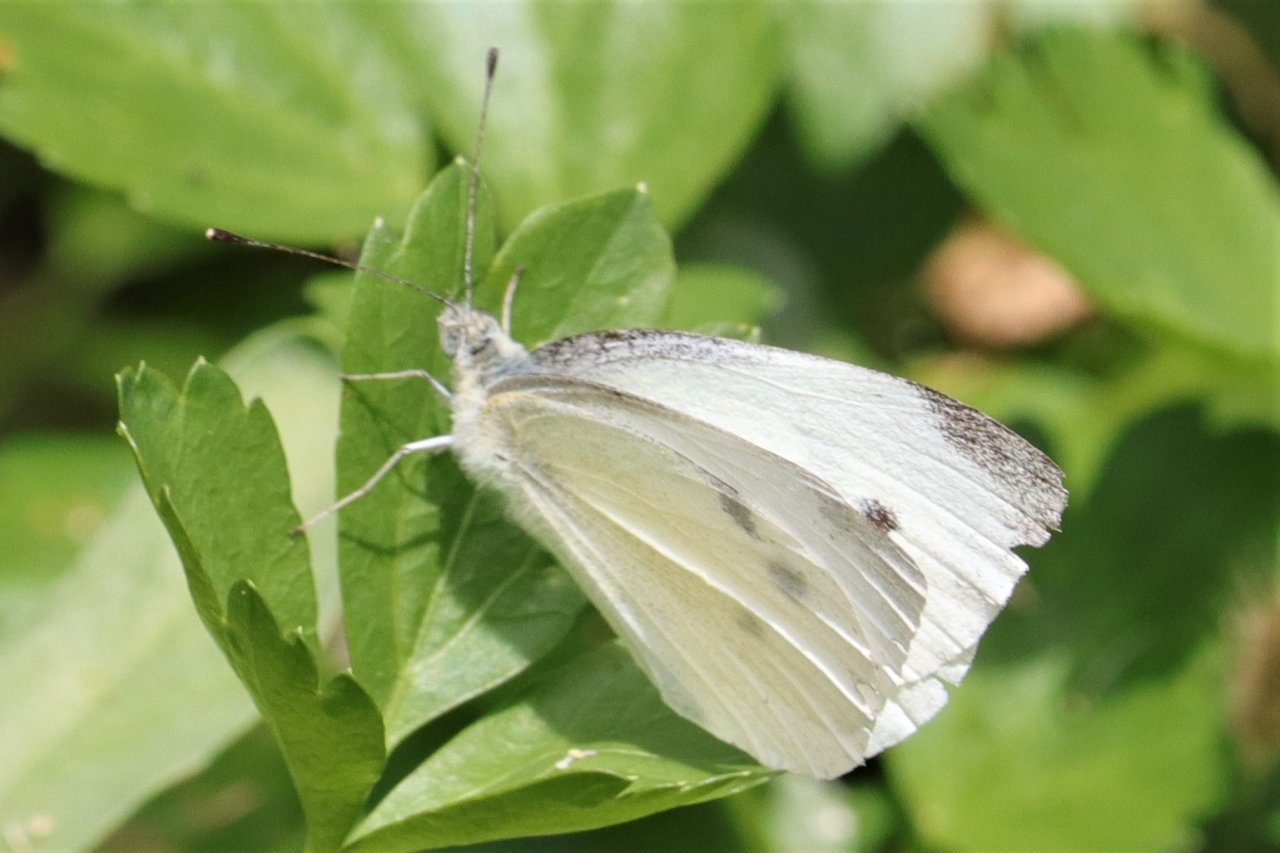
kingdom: Animalia
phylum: Arthropoda
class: Insecta
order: Lepidoptera
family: Pieridae
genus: Pieris
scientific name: Pieris rapae
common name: Cabbage White
